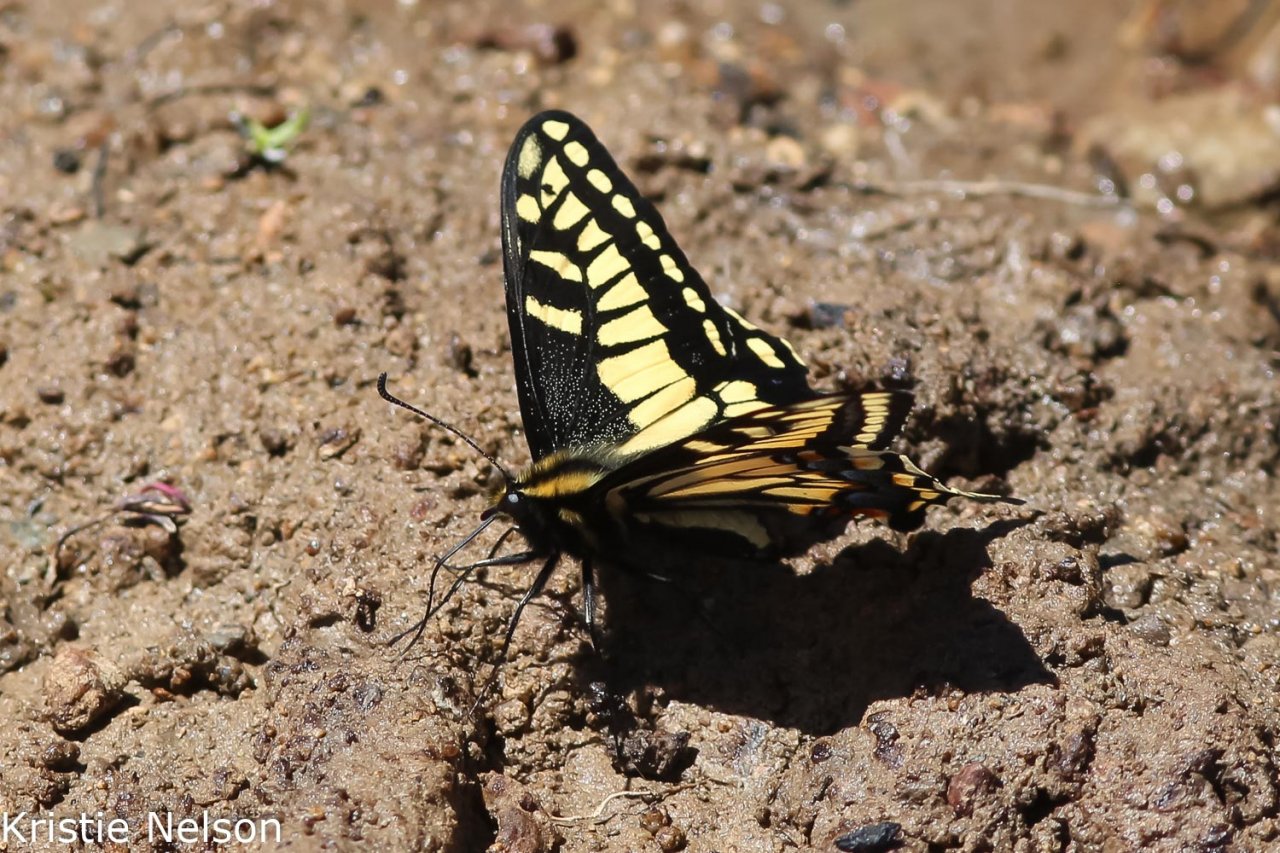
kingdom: Animalia
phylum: Arthropoda
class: Insecta
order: Lepidoptera
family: Papilionidae
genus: Papilio
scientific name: Papilio zelicaon
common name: Anise Swallowtail
